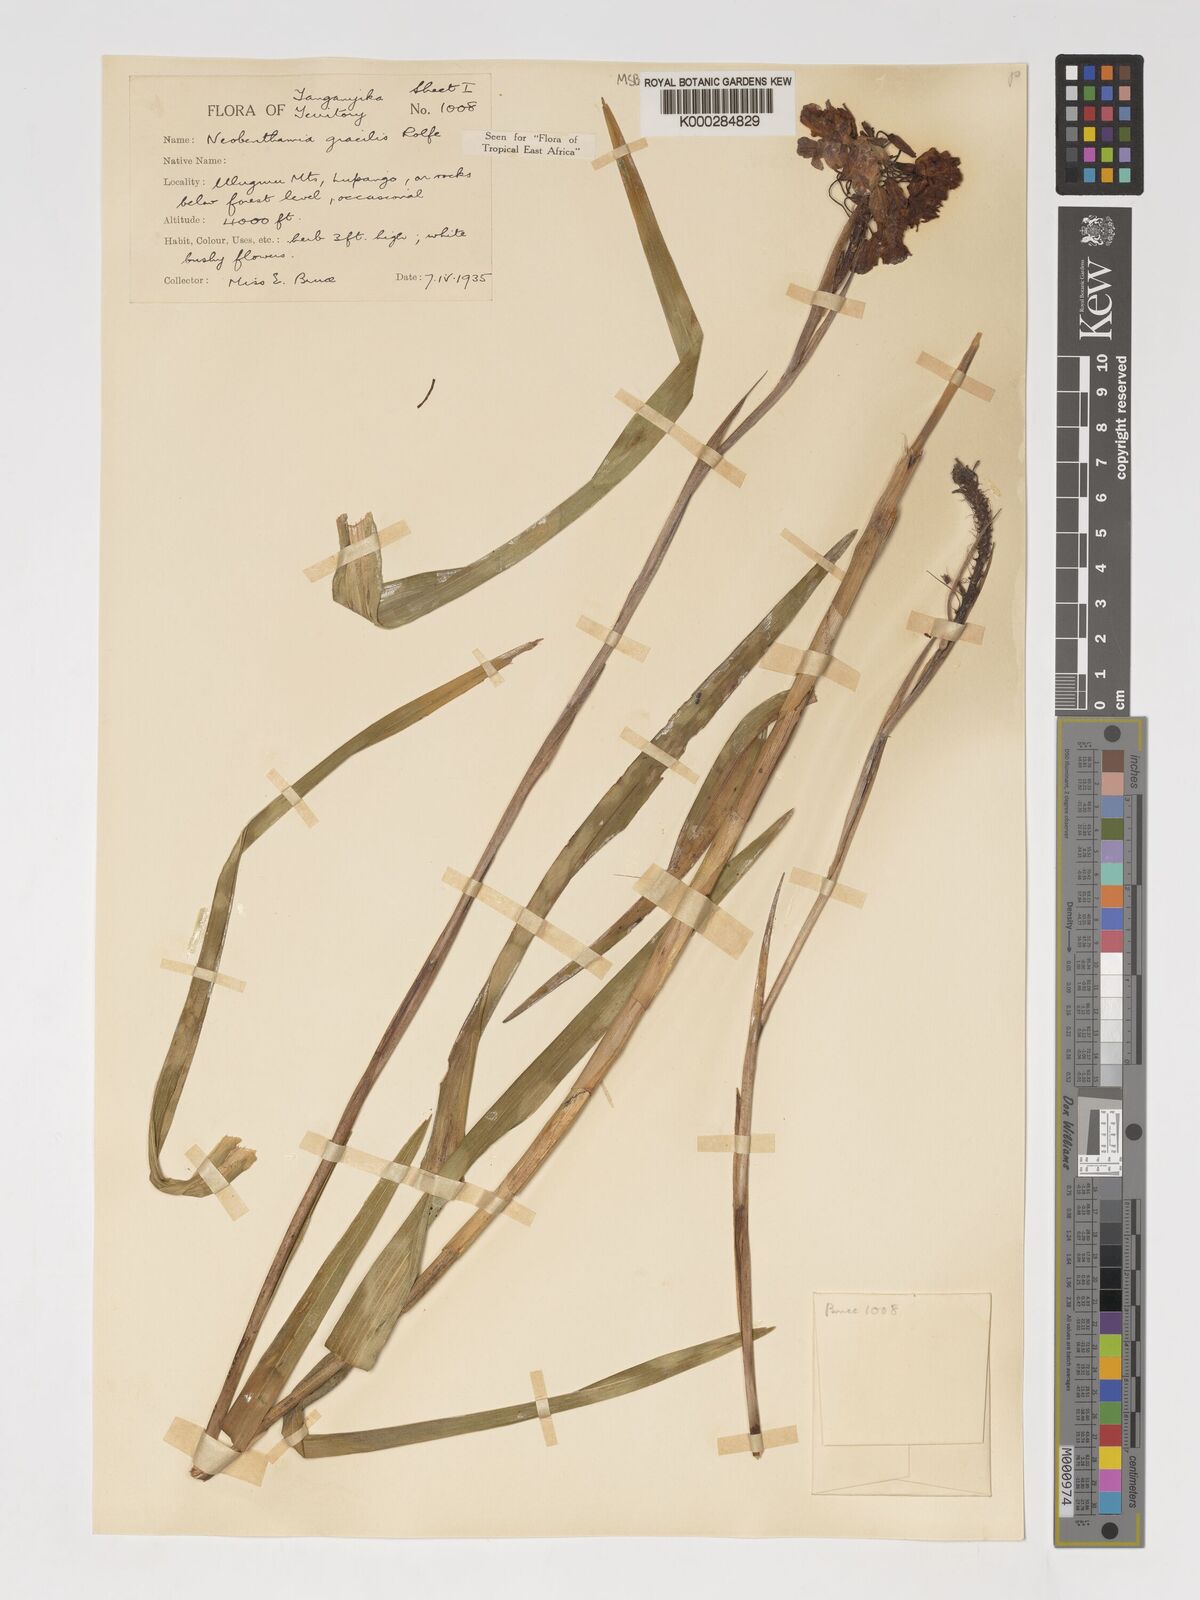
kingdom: Plantae
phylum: Tracheophyta
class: Liliopsida
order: Asparagales
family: Orchidaceae
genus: Polystachya
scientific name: Polystachya neobenthamia
